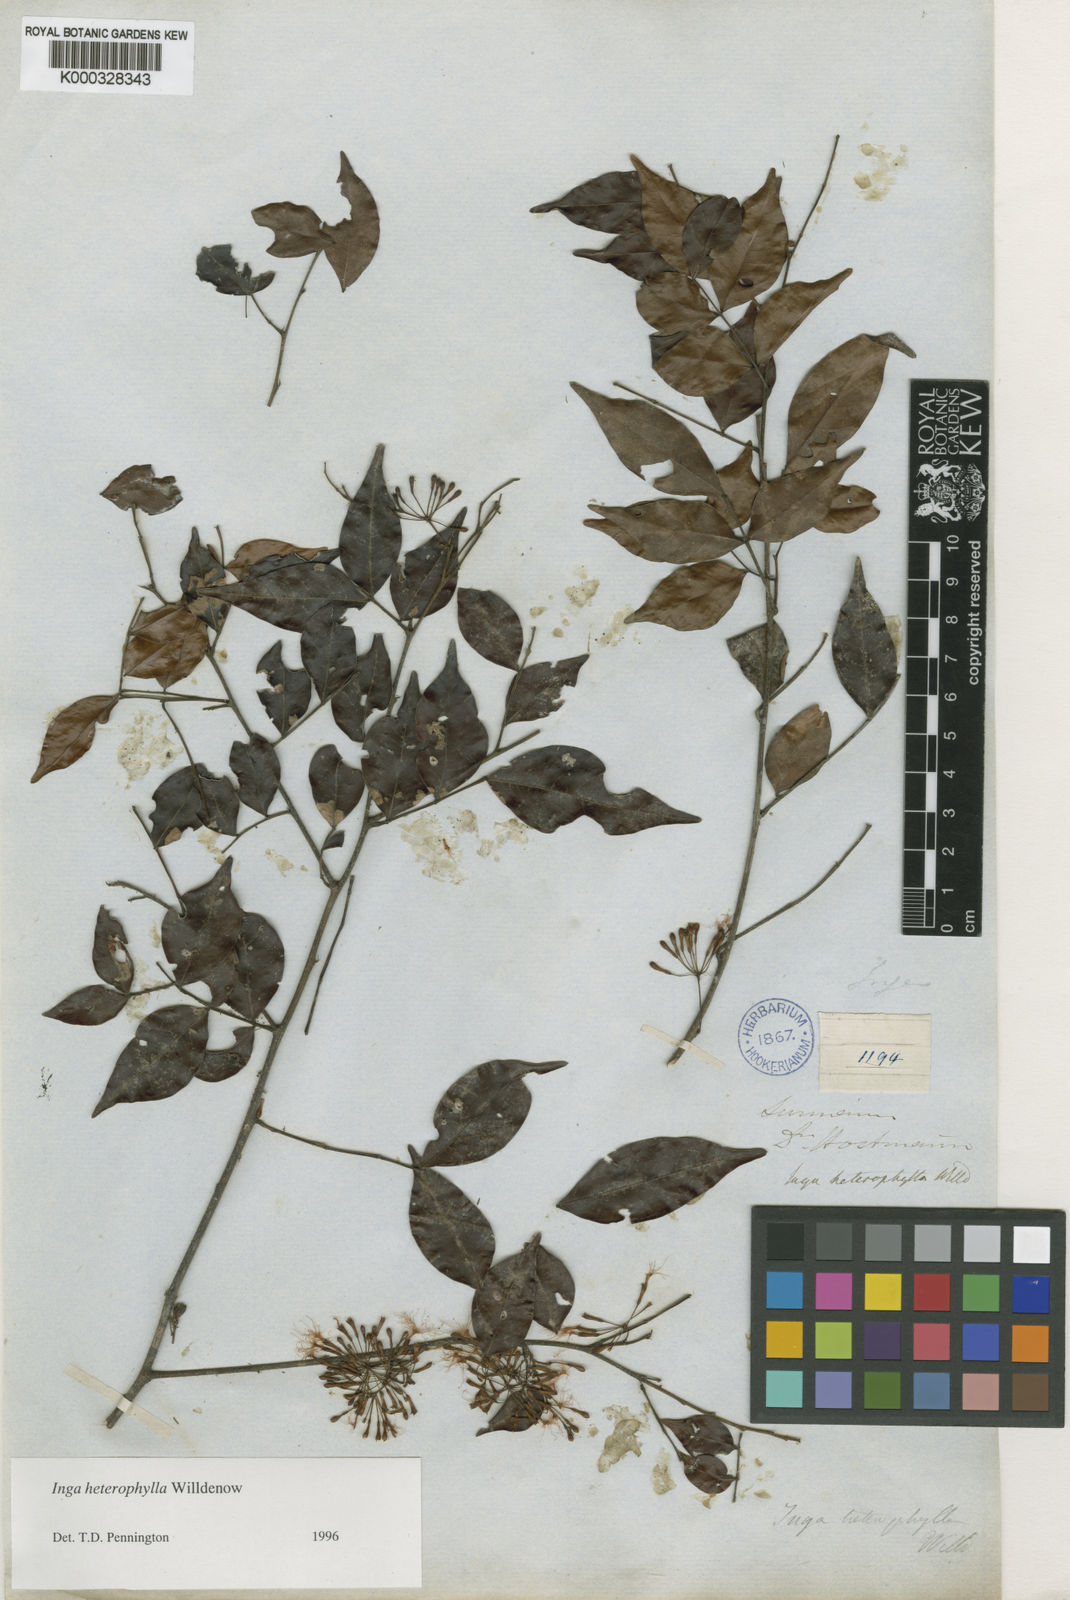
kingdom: Plantae
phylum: Tracheophyta
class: Magnoliopsida
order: Fabales
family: Fabaceae
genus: Inga
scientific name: Inga heterophylla
